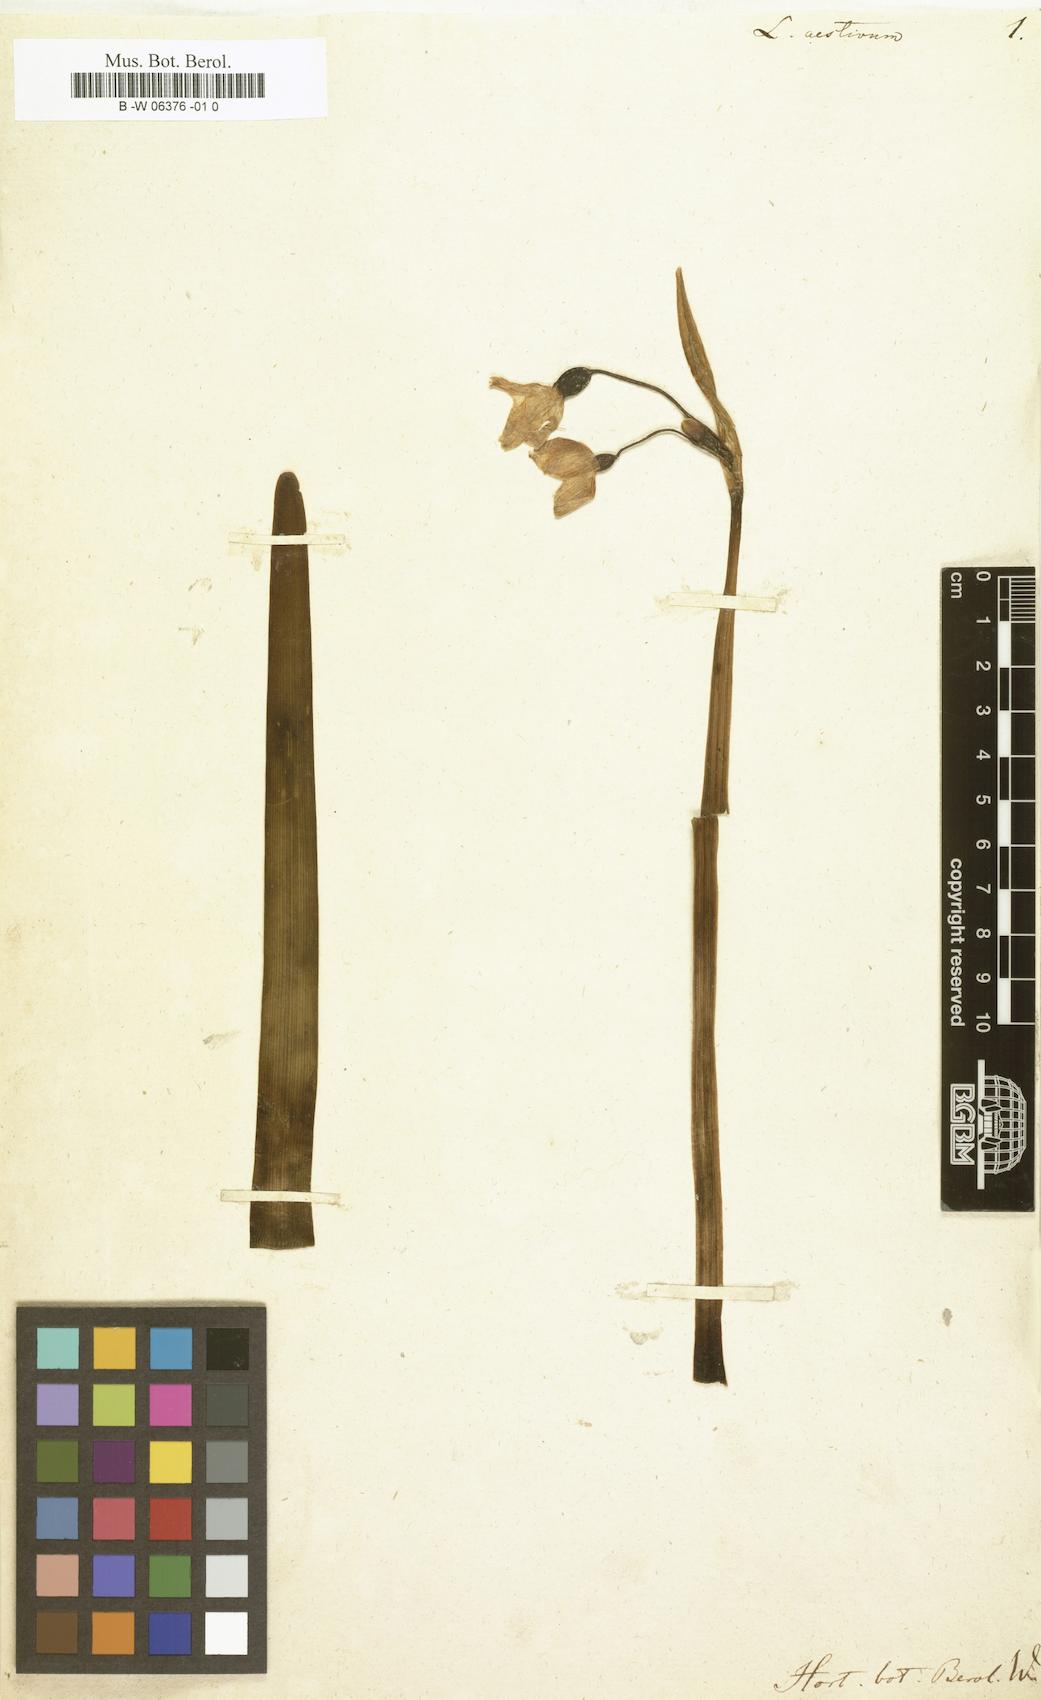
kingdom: Plantae
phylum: Tracheophyta
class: Liliopsida
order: Asparagales
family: Amaryllidaceae
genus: Leucojum
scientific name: Leucojum aestivum
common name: Summer snowflake
